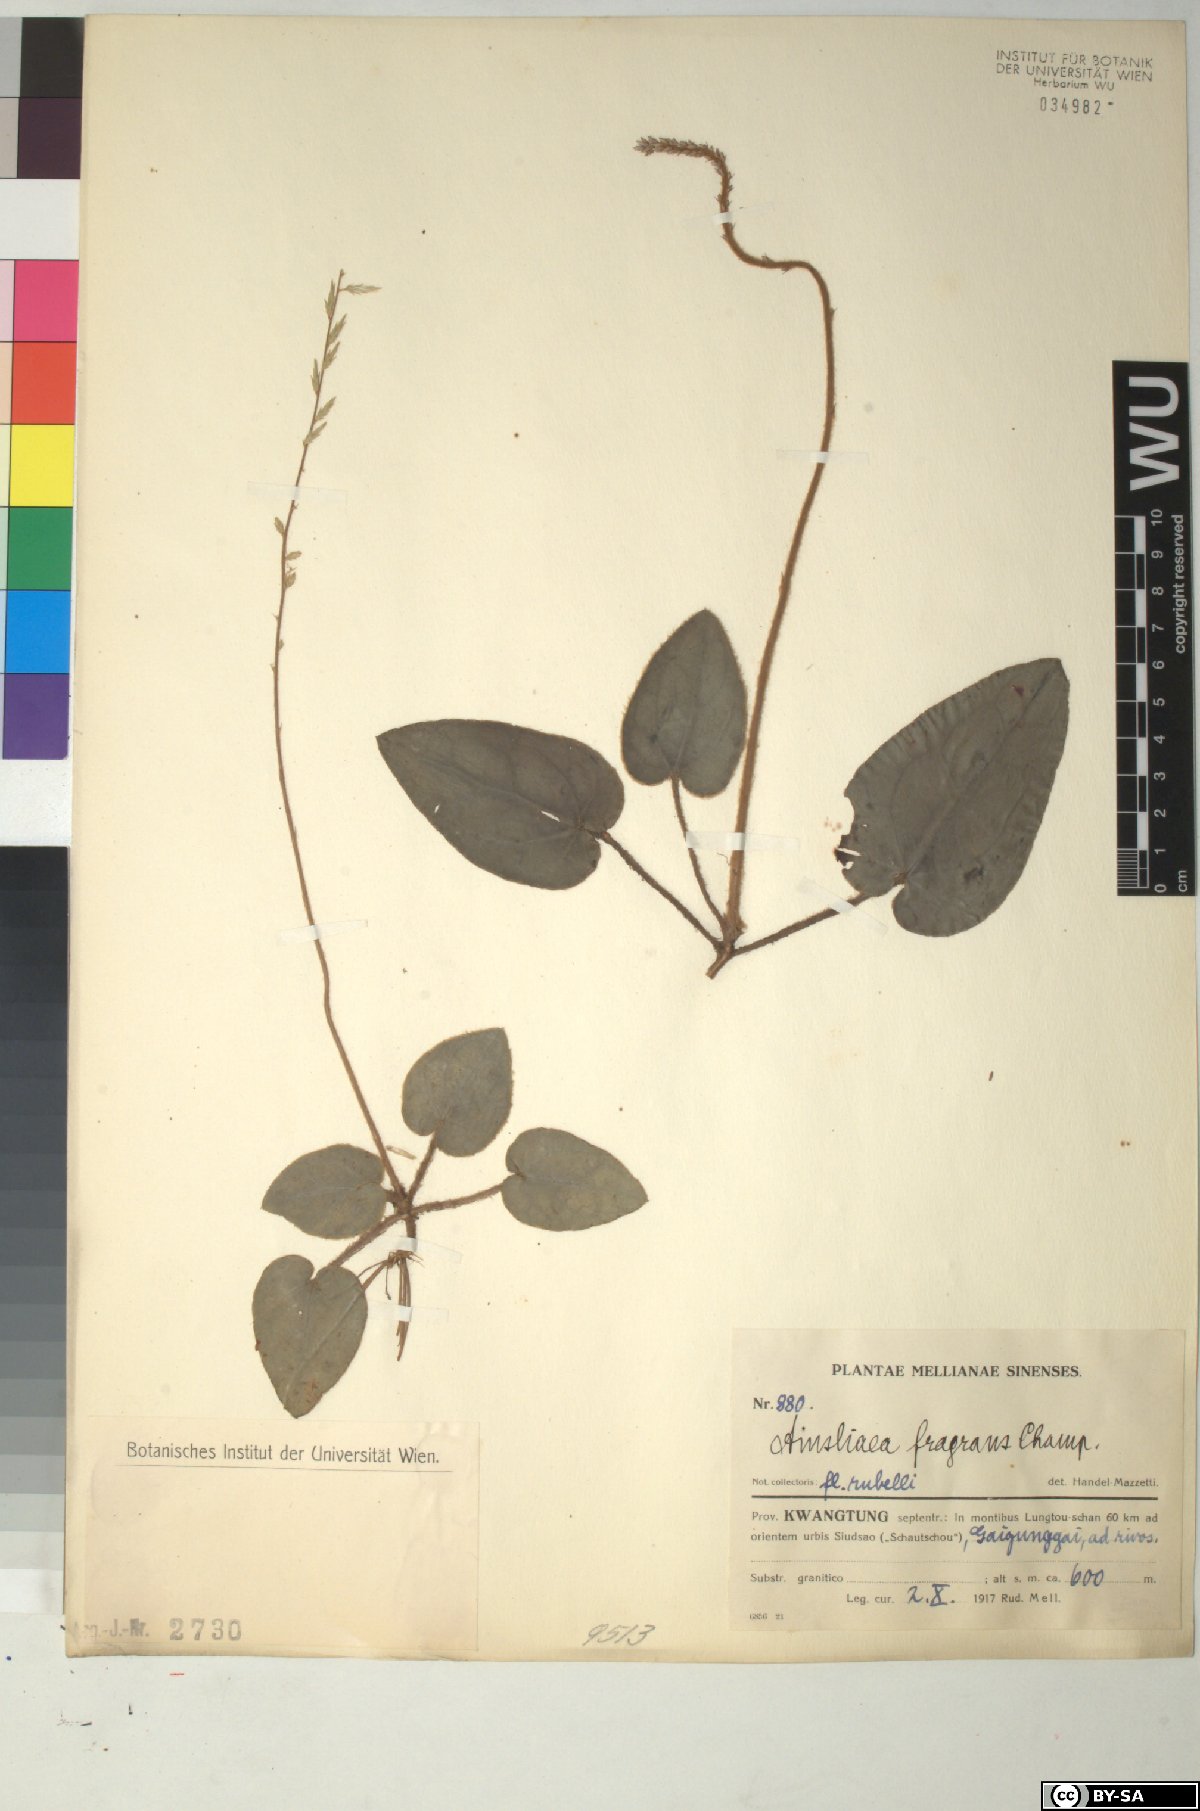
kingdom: Plantae
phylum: Tracheophyta
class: Magnoliopsida
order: Asterales
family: Asteraceae
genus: Ainsliaea
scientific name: Ainsliaea fragrans
